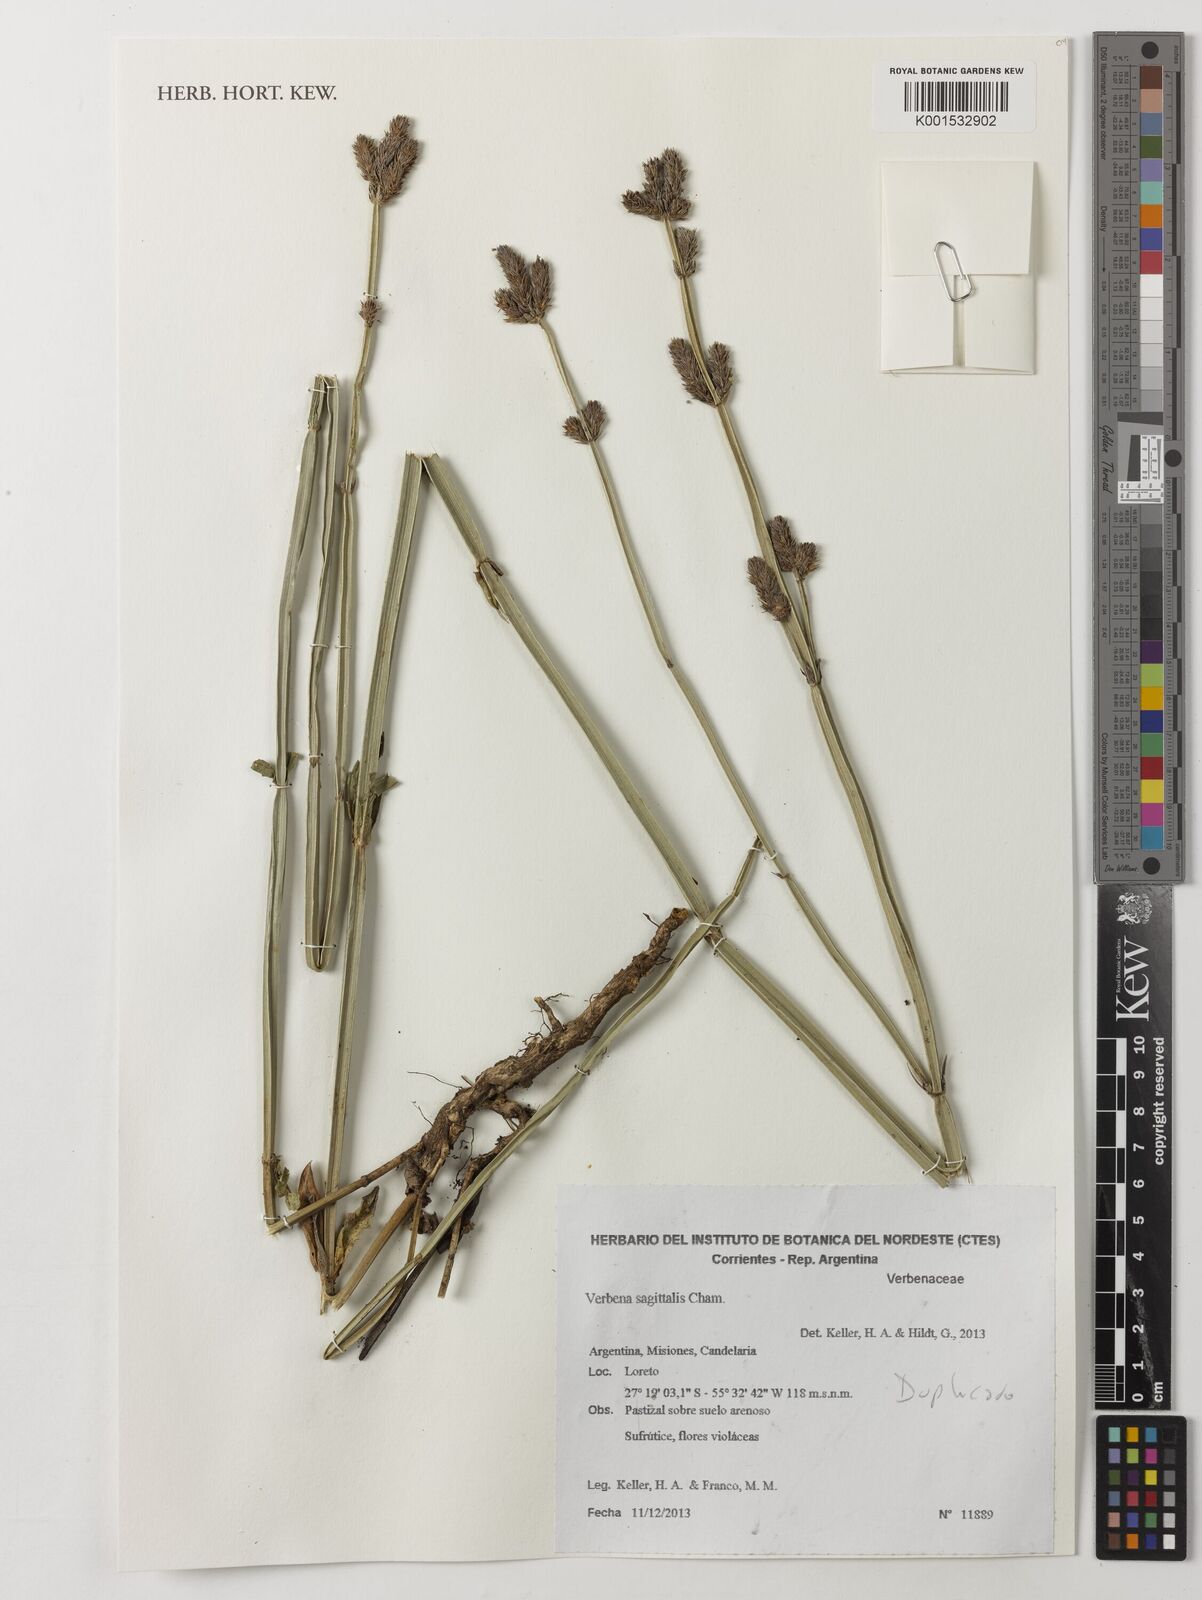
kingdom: Plantae
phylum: Tracheophyta
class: Magnoliopsida
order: Lamiales
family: Verbenaceae
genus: Verbena
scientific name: Verbena sagittalis
